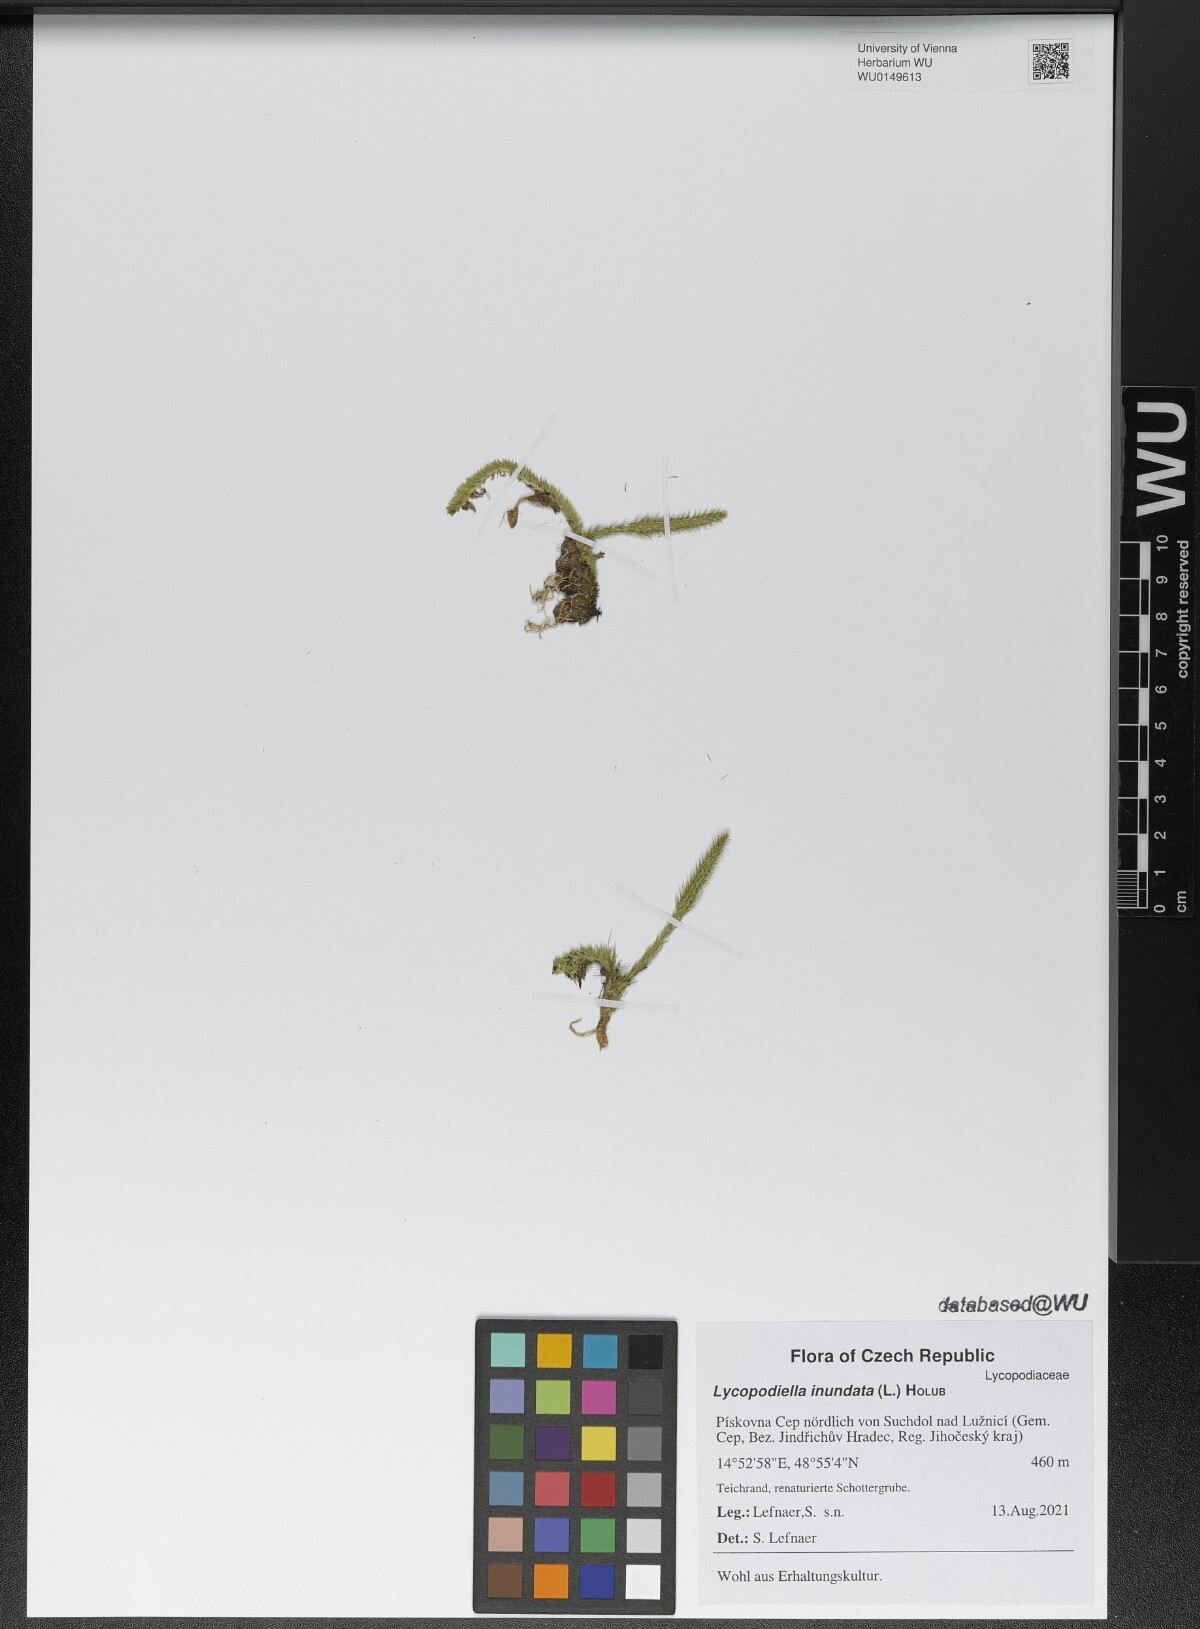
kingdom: Plantae
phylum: Tracheophyta
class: Lycopodiopsida
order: Lycopodiales
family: Lycopodiaceae
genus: Lycopodiella
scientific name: Lycopodiella inundata
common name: Marsh clubmoss
